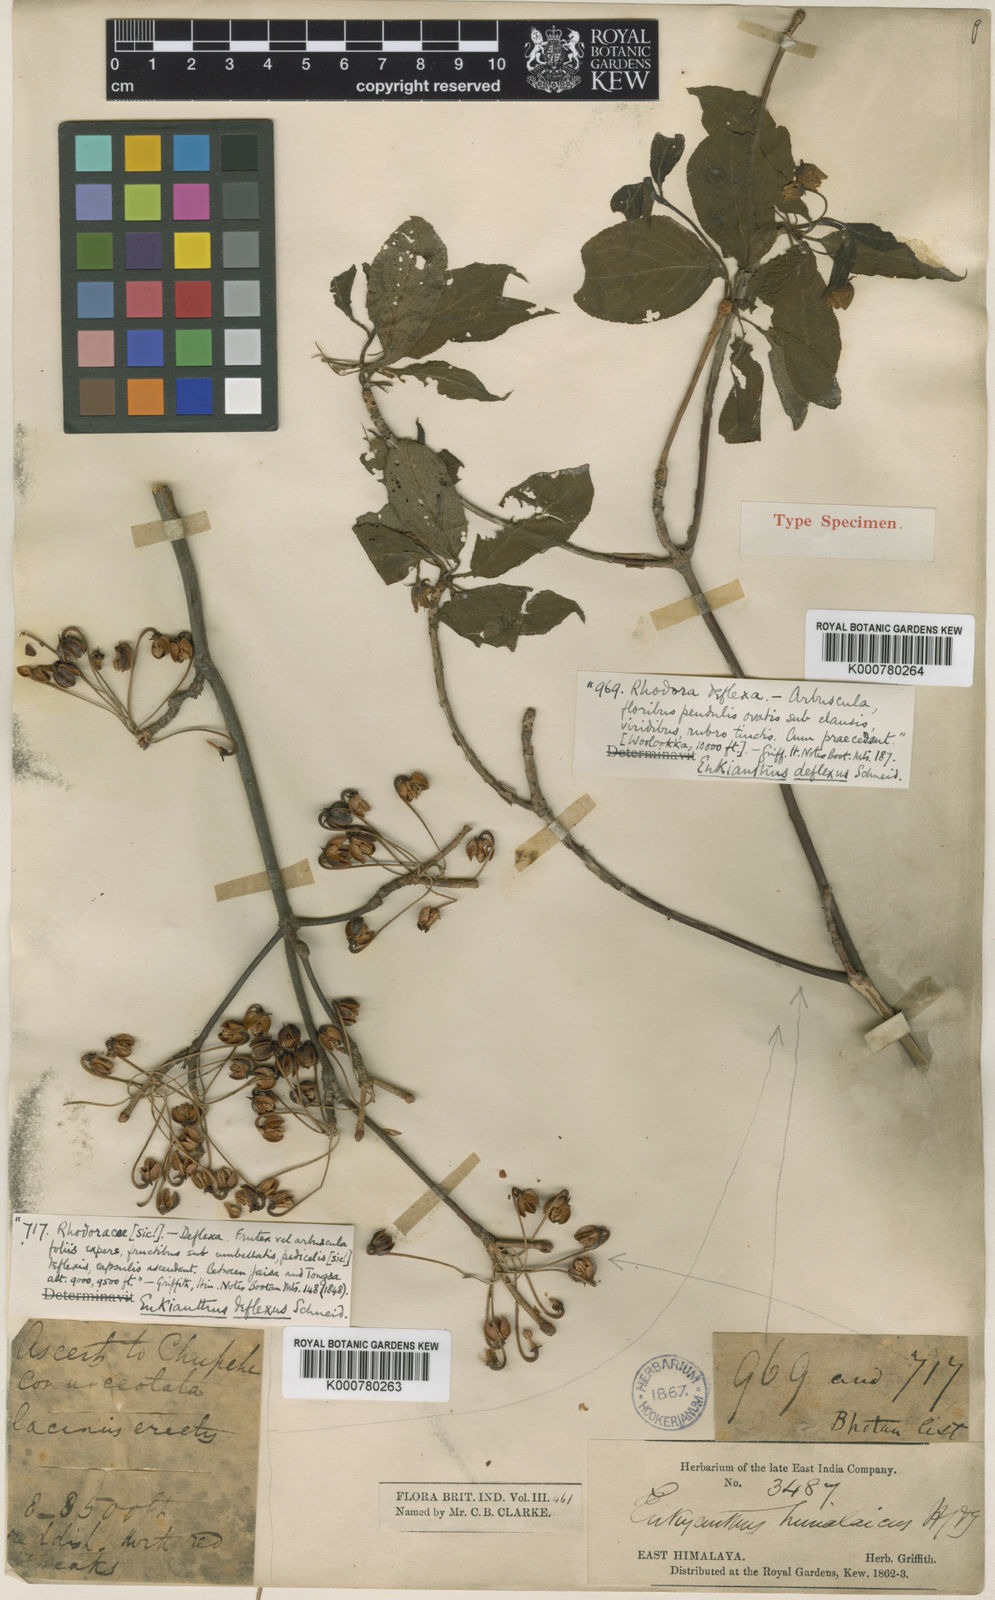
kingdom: Plantae
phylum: Tracheophyta
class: Magnoliopsida
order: Ericales
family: Ericaceae
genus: Enkianthus
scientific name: Enkianthus deflexus
